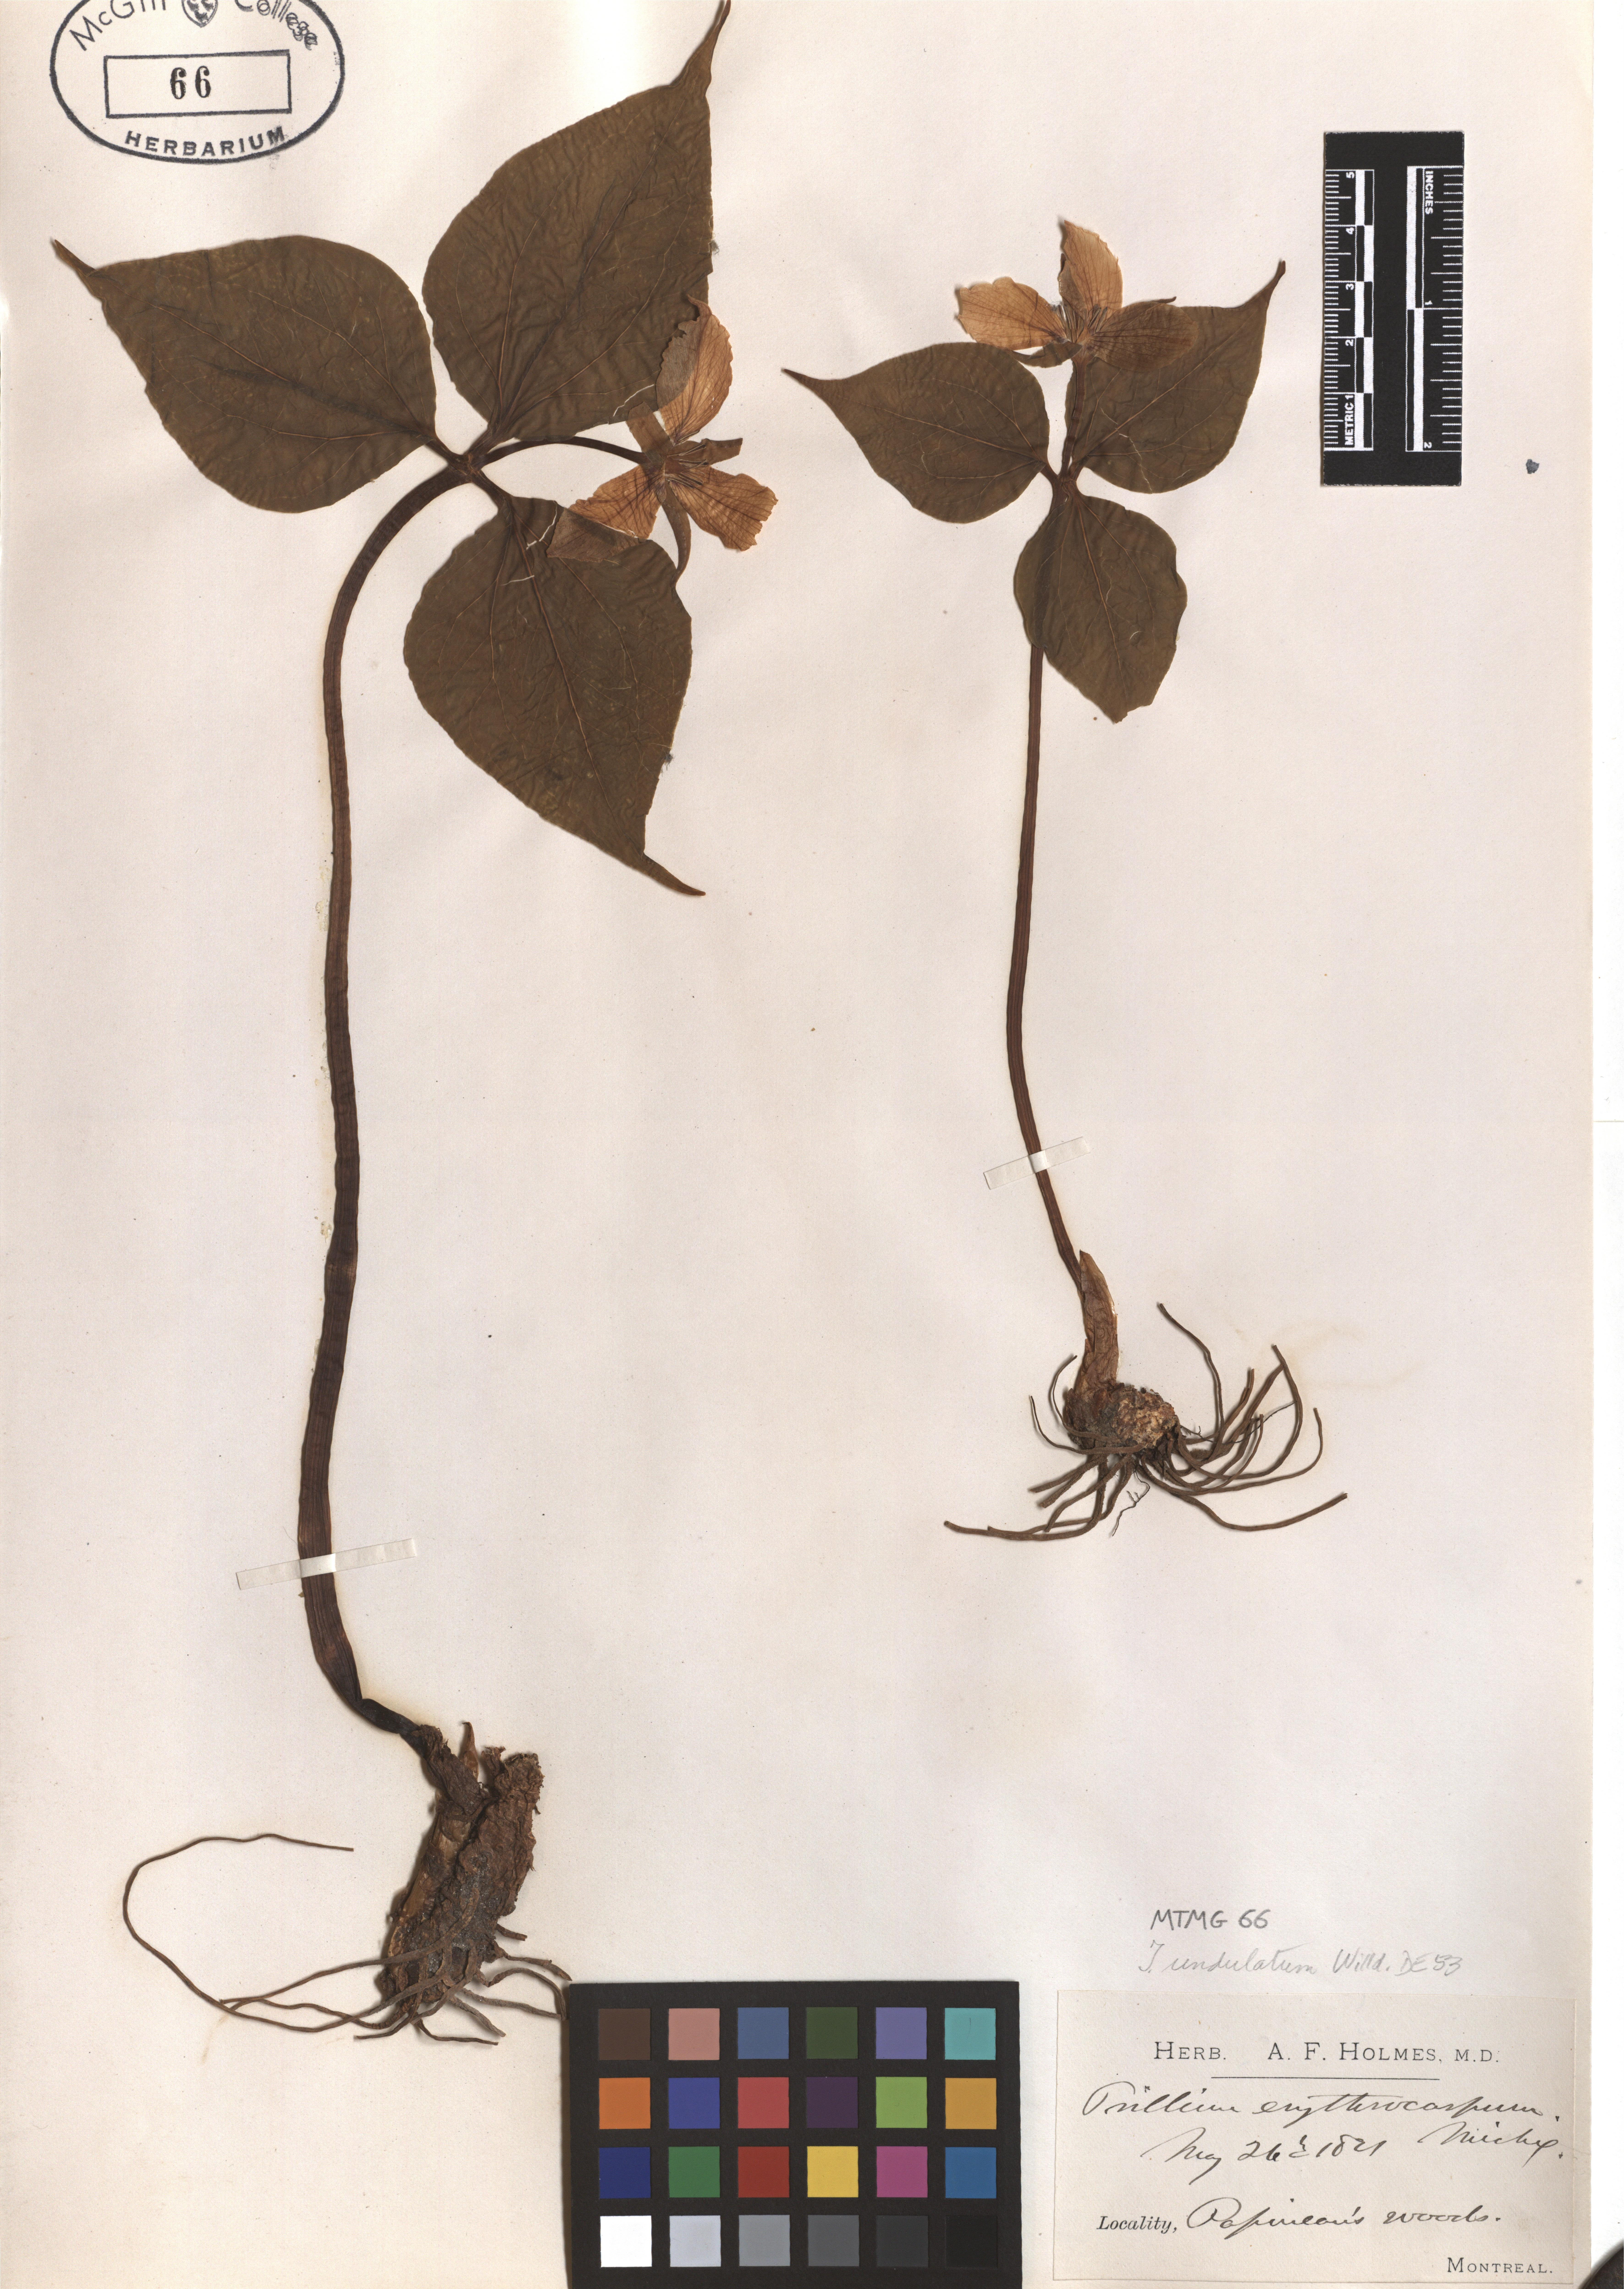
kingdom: Plantae
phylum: Tracheophyta
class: Liliopsida
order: Liliales
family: Melanthiaceae
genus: Trillium
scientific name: Trillium undulatum
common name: Paint trillium
